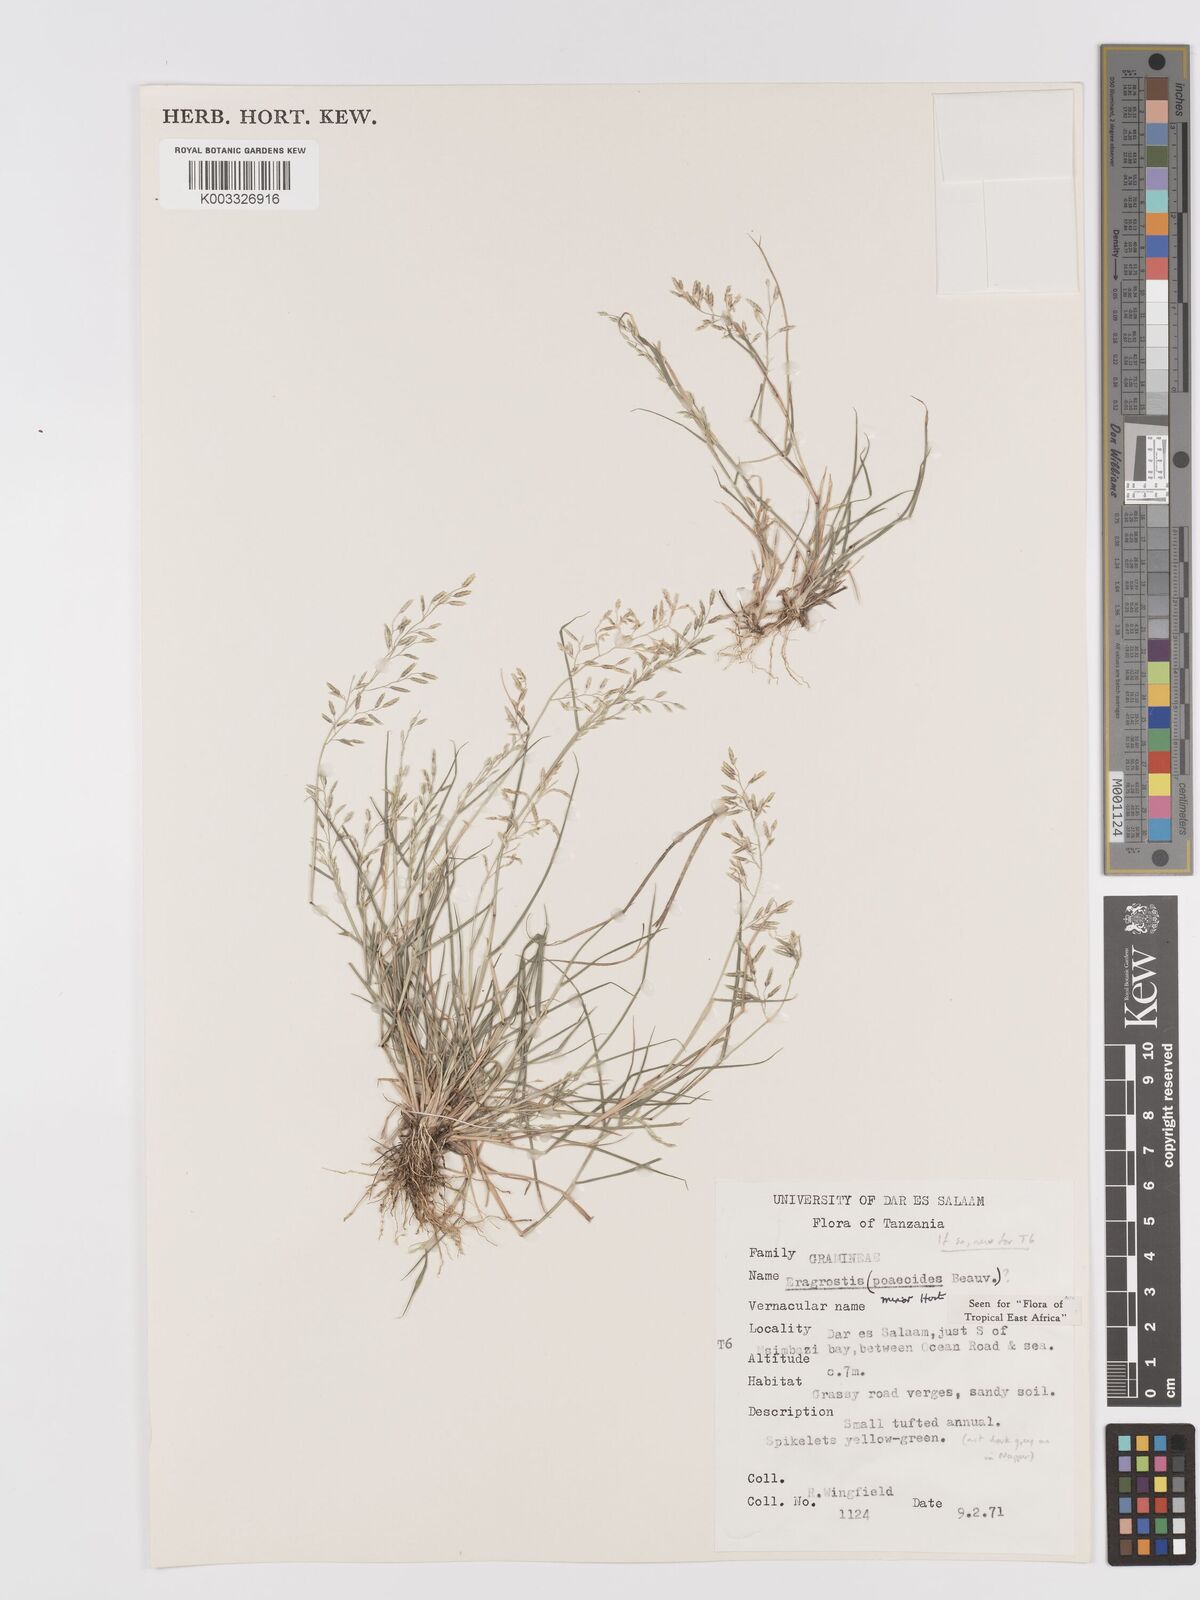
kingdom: Plantae
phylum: Tracheophyta
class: Liliopsida
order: Poales
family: Poaceae
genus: Eragrostis
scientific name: Eragrostis minor
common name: Small love-grass
